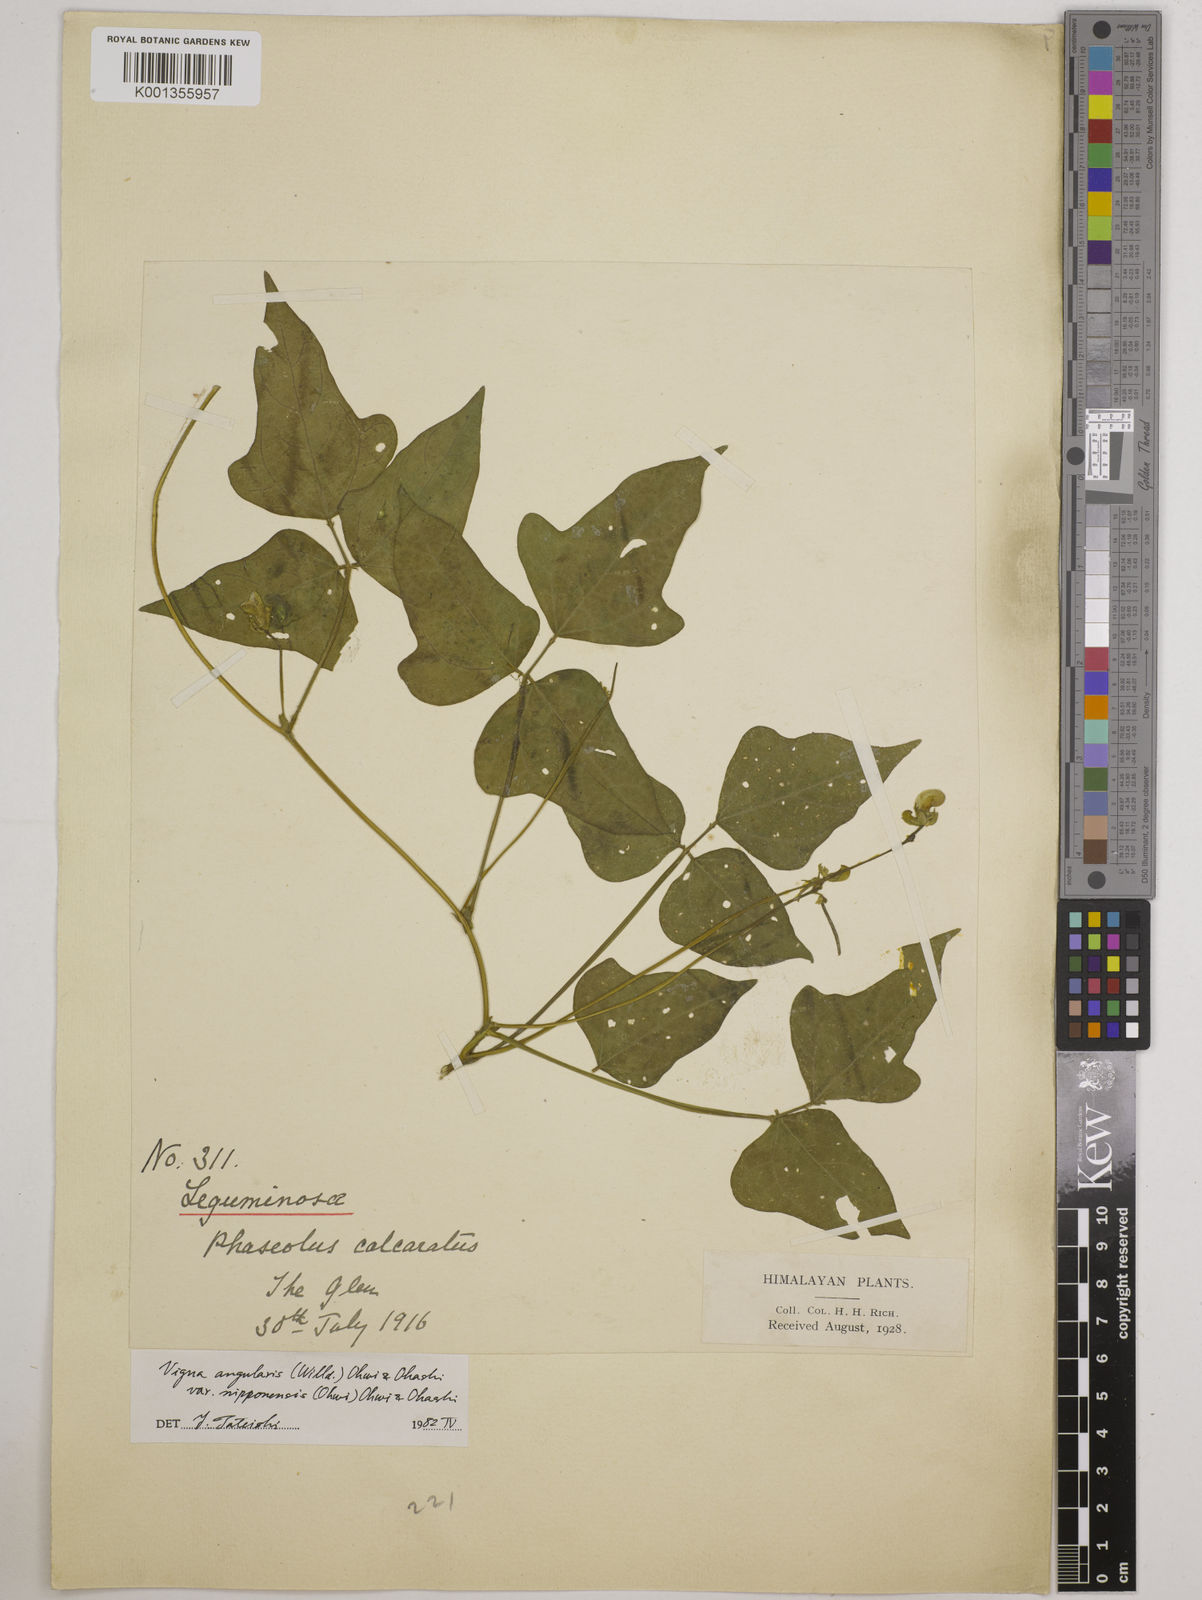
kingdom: Plantae
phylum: Tracheophyta
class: Magnoliopsida
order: Fabales
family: Fabaceae
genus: Vigna
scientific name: Vigna
